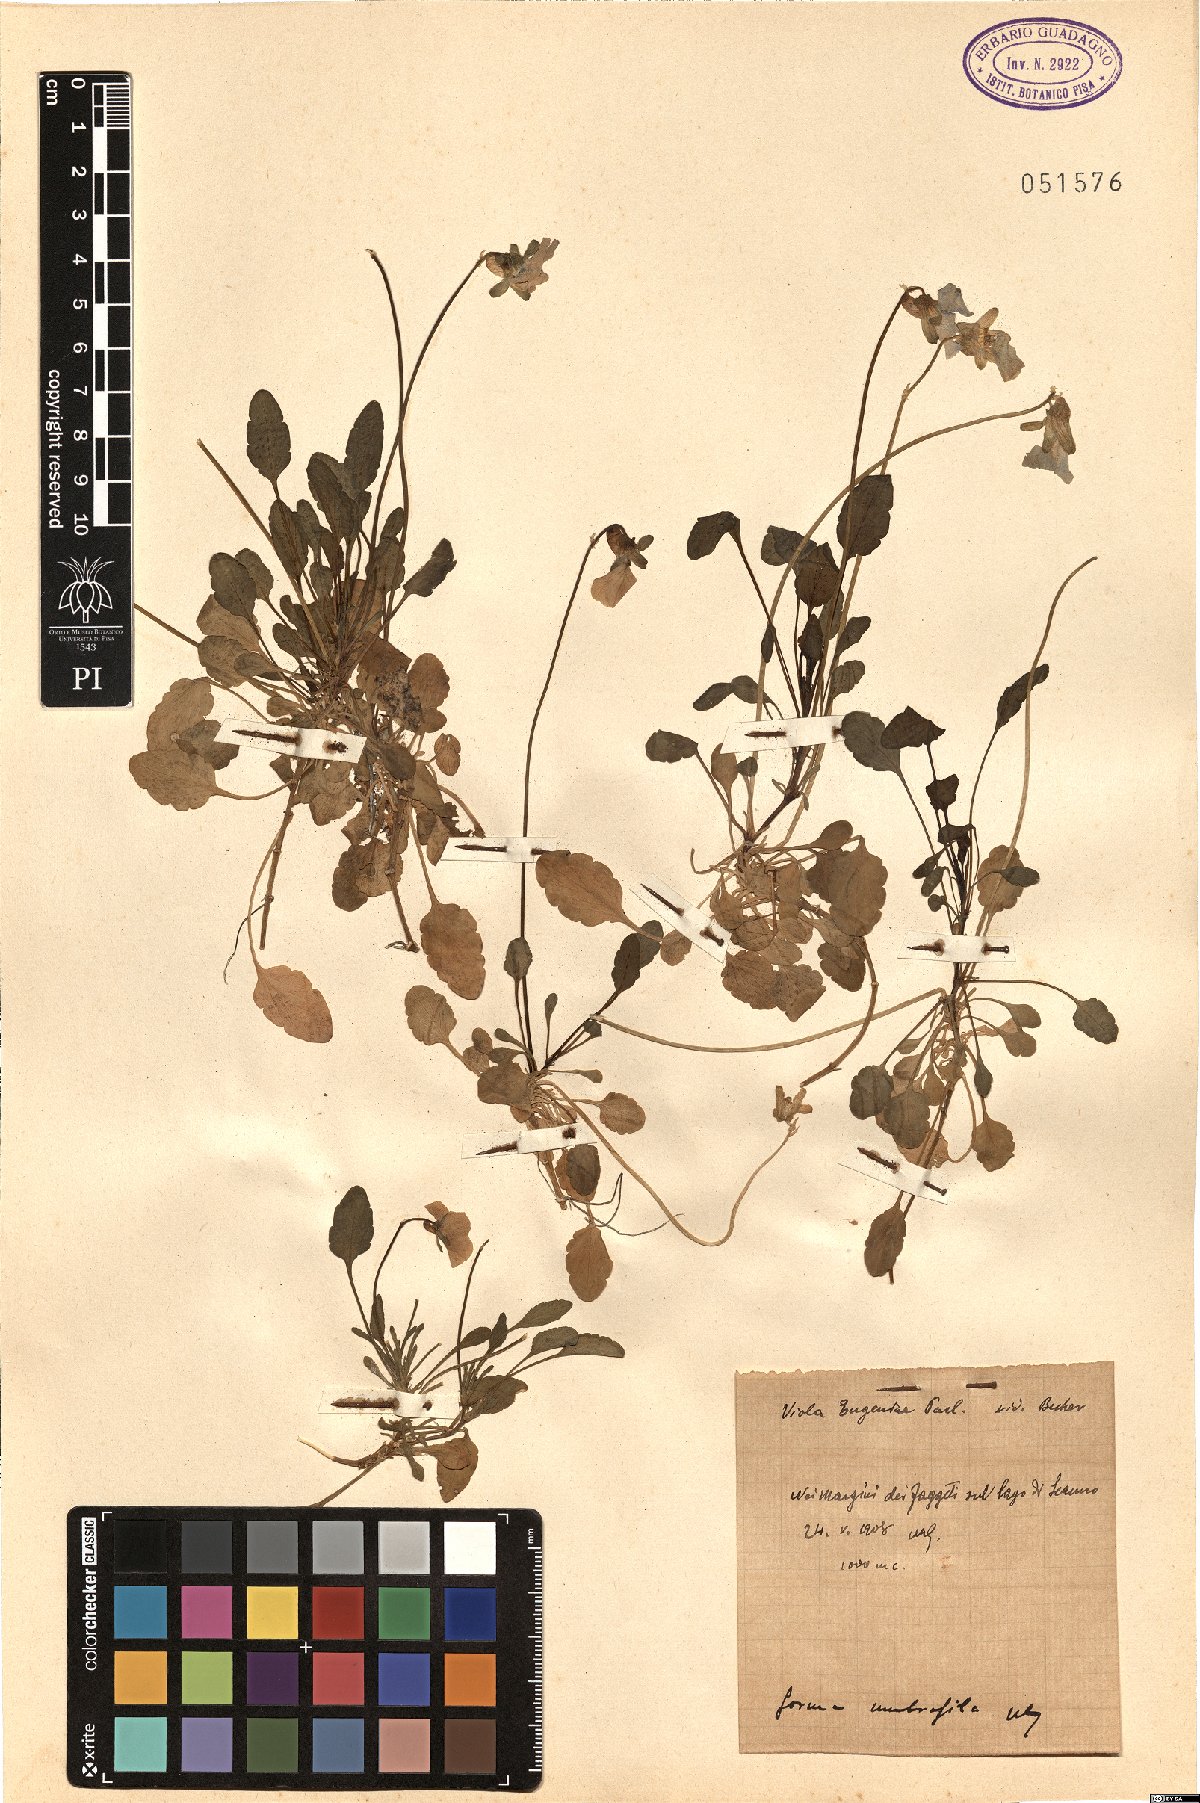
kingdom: Plantae
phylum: Tracheophyta
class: Magnoliopsida
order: Malpighiales
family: Violaceae
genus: Viola
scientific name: Viola eugeniae
